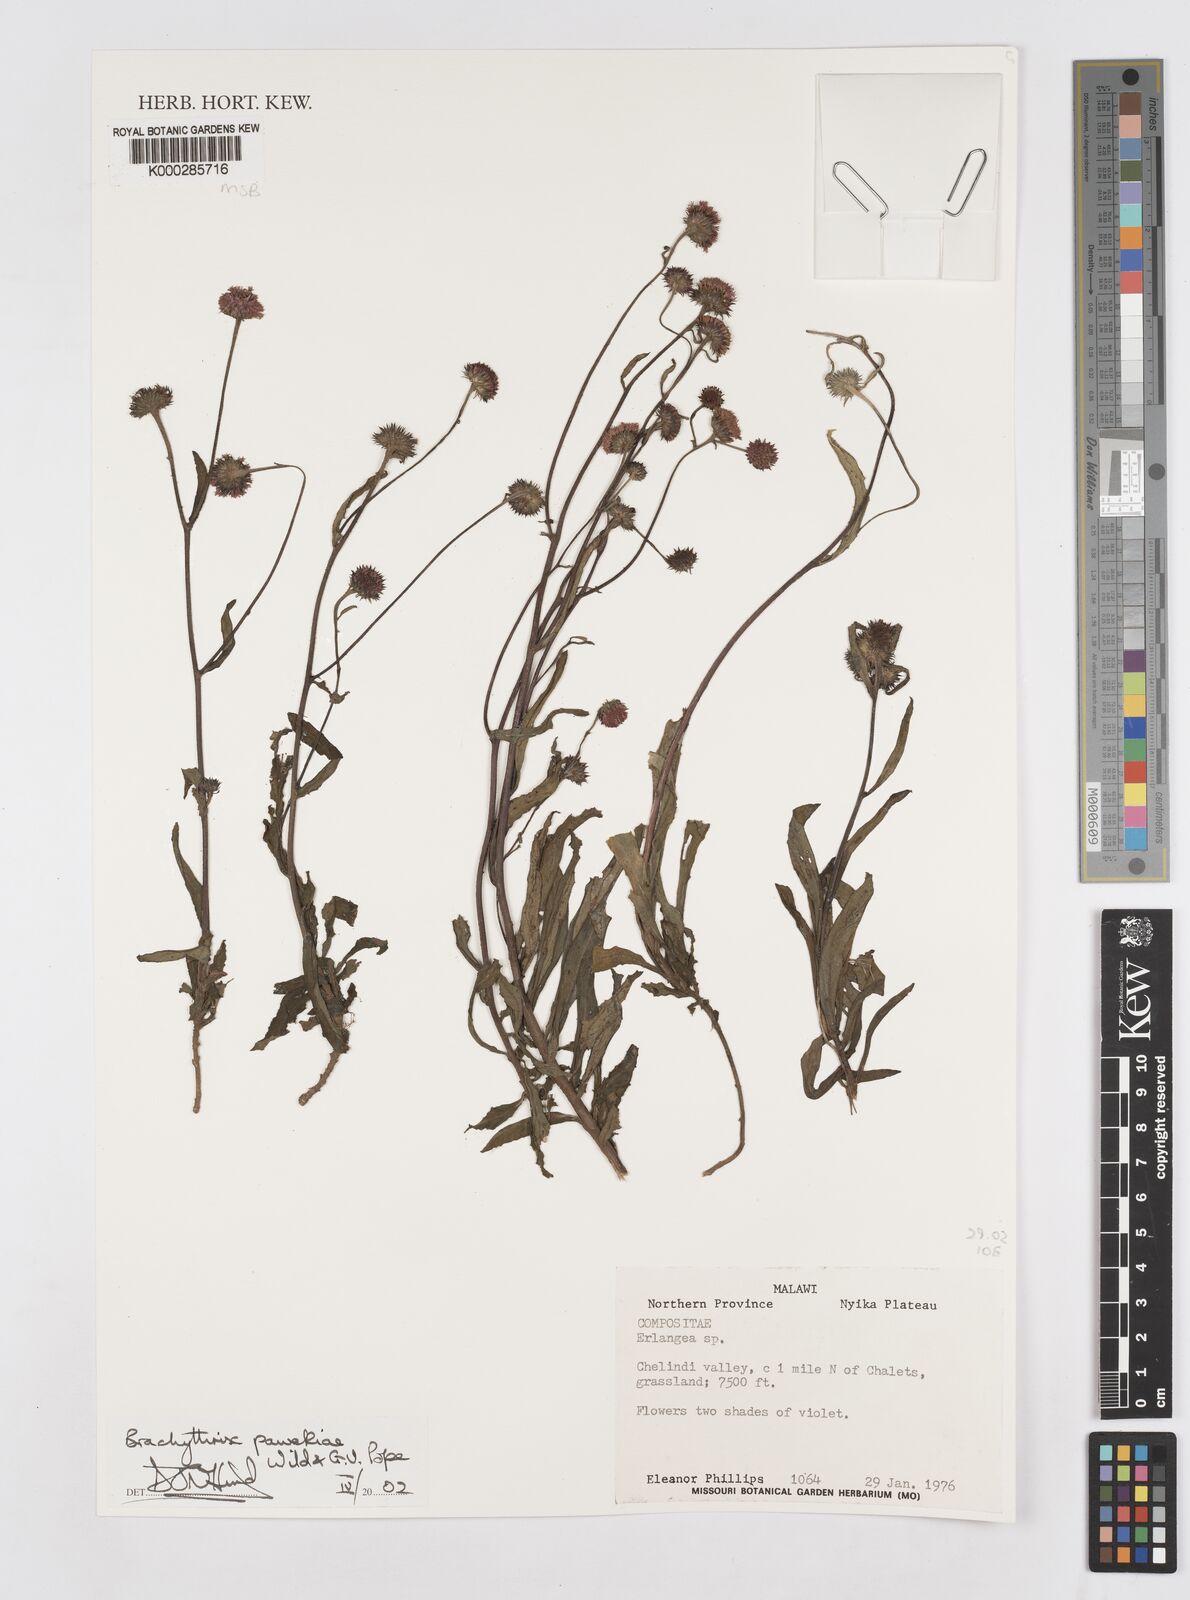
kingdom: Plantae
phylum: Tracheophyta
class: Magnoliopsida
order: Asterales
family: Asteraceae
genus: Brachythrix
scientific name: Brachythrix pawekiae
